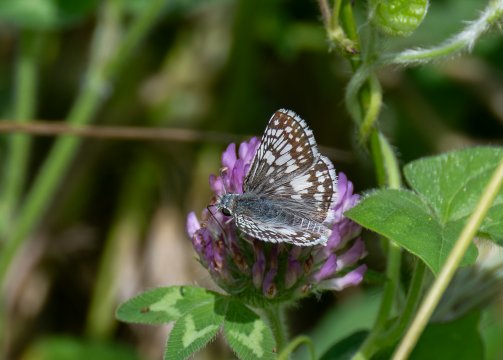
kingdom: Animalia
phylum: Arthropoda
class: Insecta
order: Lepidoptera
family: Hesperiidae
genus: Pyrgus
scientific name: Pyrgus communis
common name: Common Checkered-Skipper
